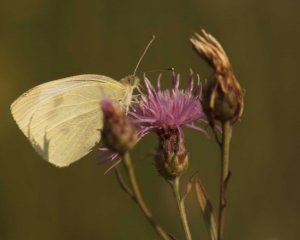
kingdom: Animalia
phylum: Arthropoda
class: Insecta
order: Lepidoptera
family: Pieridae
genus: Pieris
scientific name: Pieris rapae
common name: Cabbage White
